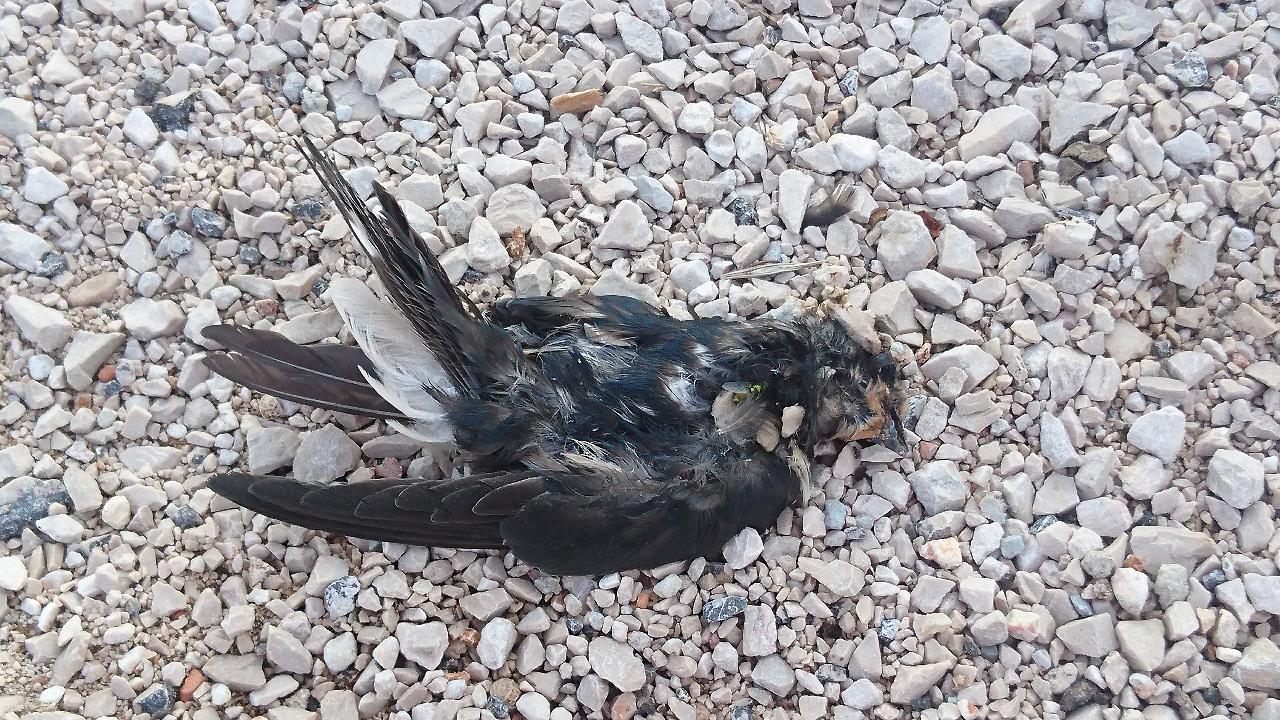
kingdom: Animalia
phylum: Chordata
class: Aves
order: Passeriformes
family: Hirundinidae
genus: Hirundo
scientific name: Hirundo rustica
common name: Barn swallow
